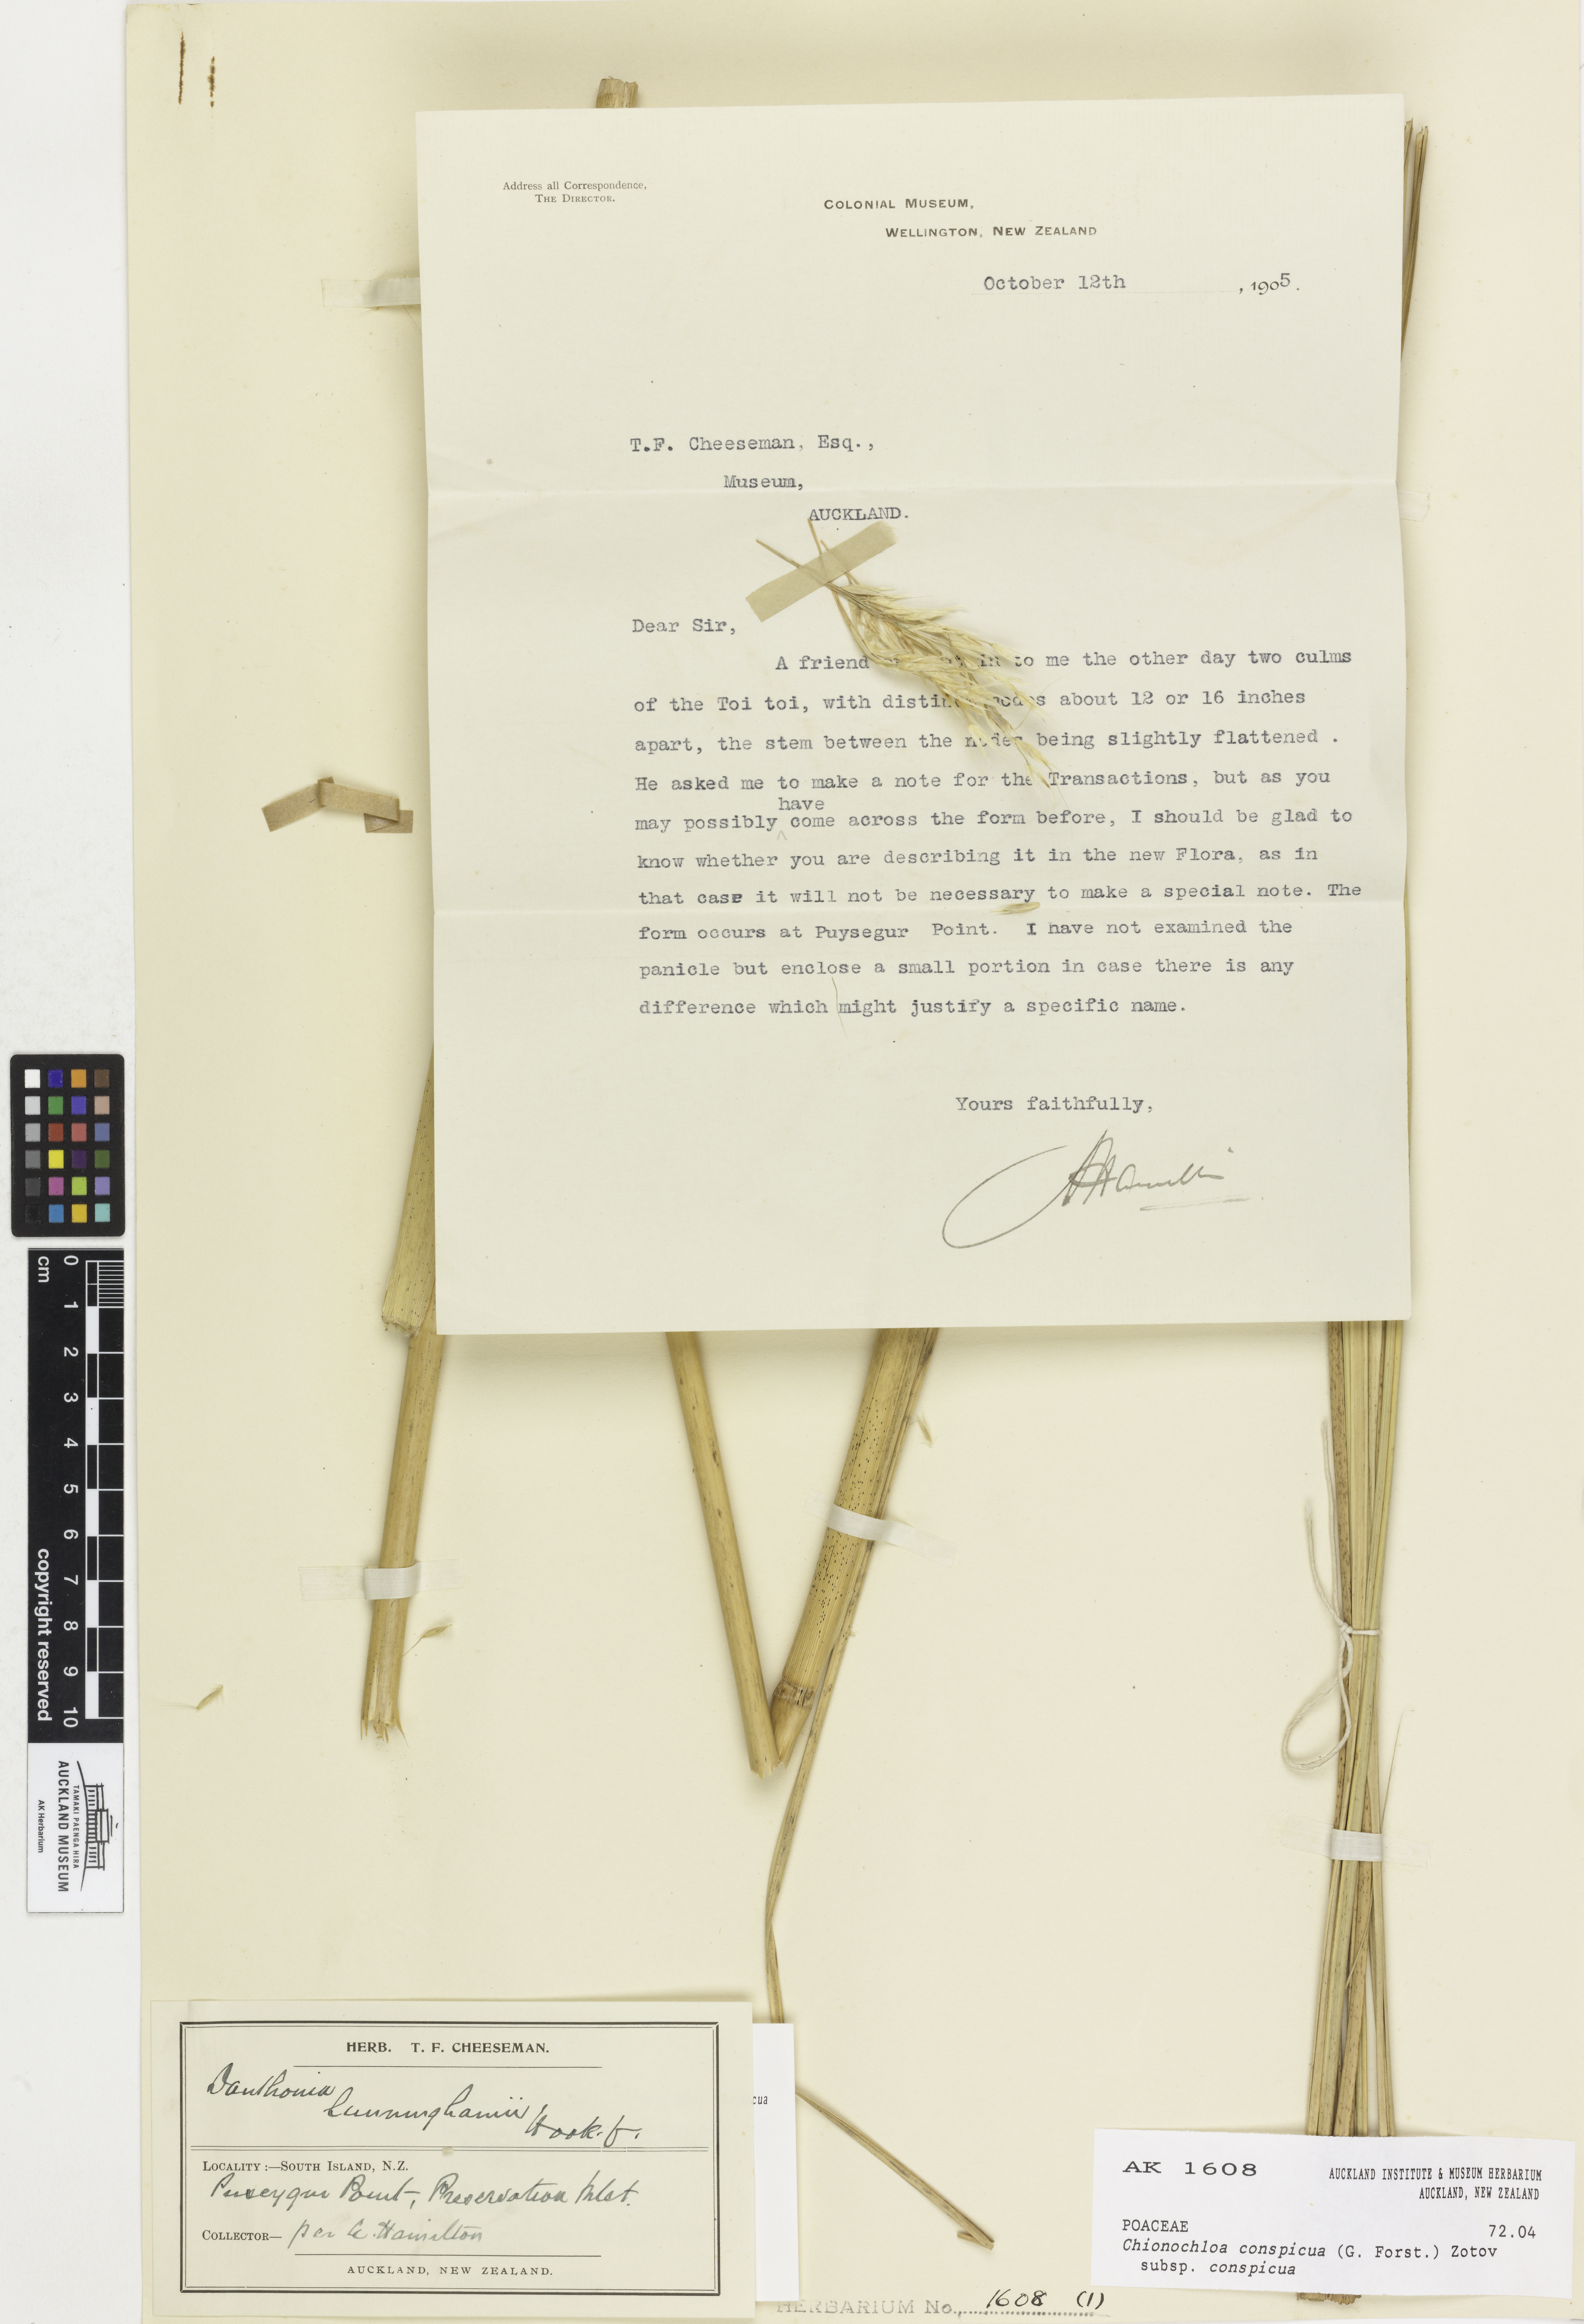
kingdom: Plantae
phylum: Tracheophyta
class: Liliopsida
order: Poales
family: Poaceae
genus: Chionochloa
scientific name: Chionochloa conspicua
